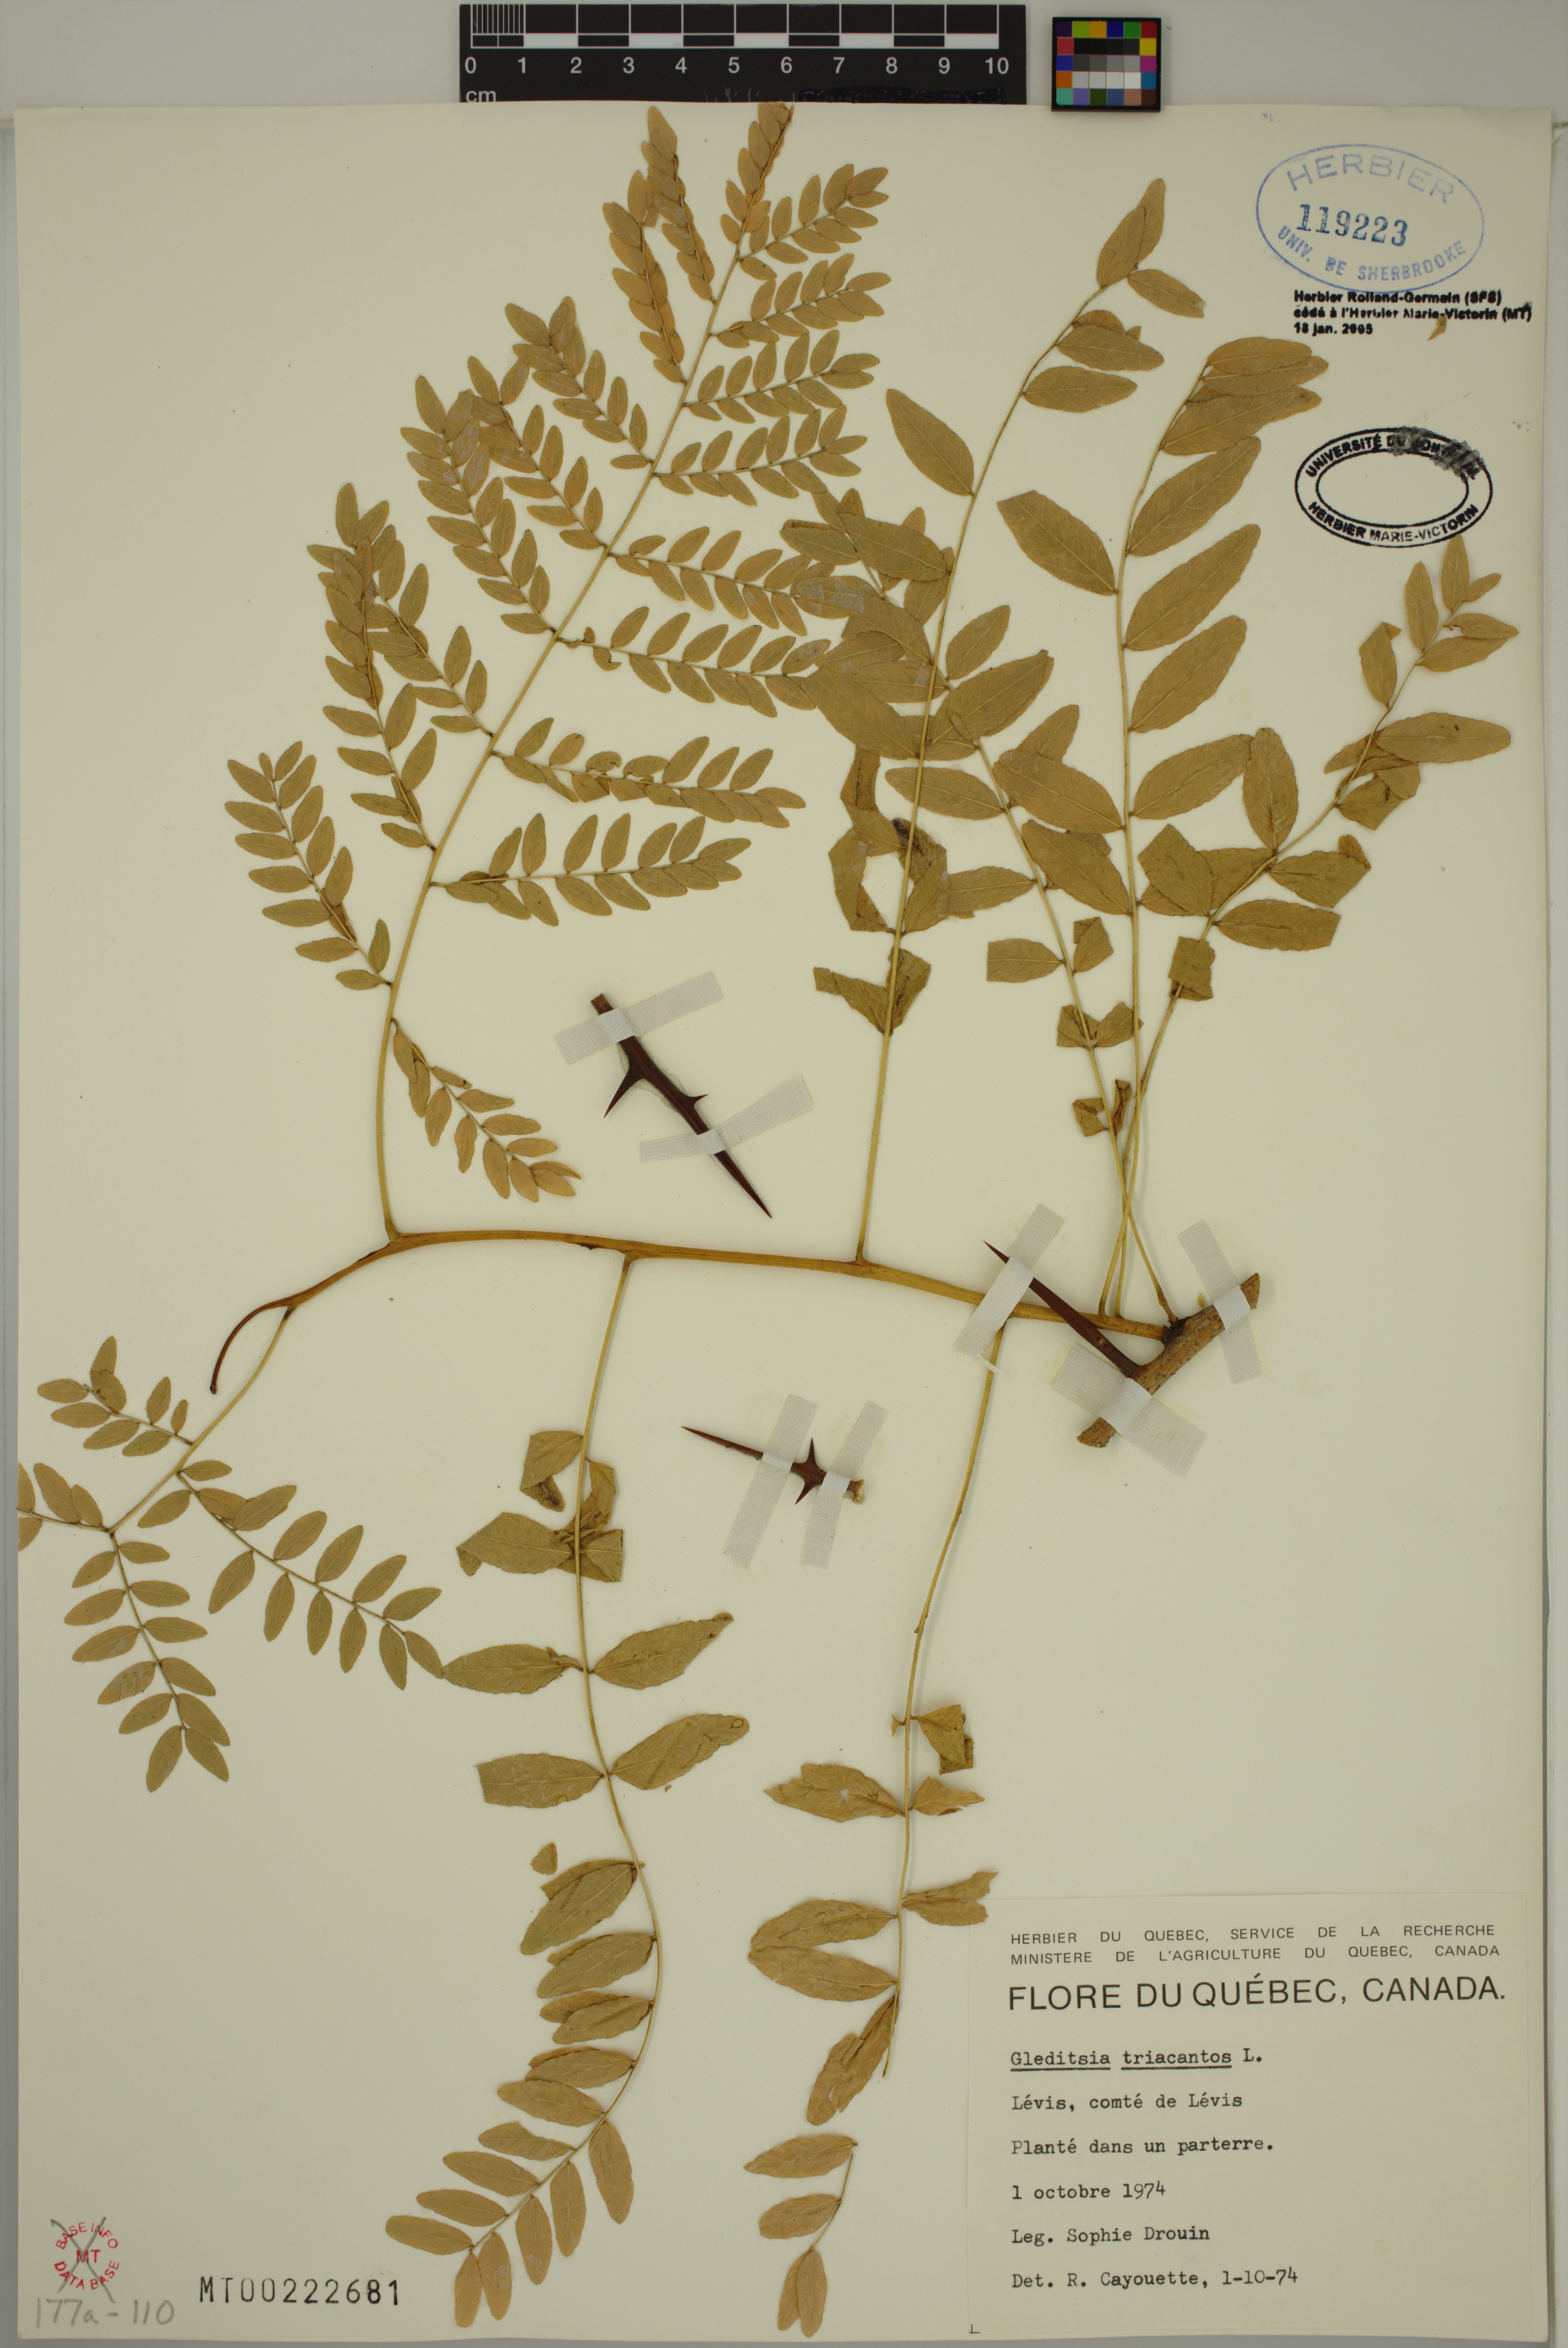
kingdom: Plantae
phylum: Tracheophyta
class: Magnoliopsida
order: Fabales
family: Fabaceae
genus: Gleditsia
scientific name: Gleditsia triacanthos
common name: Common honeylocust
